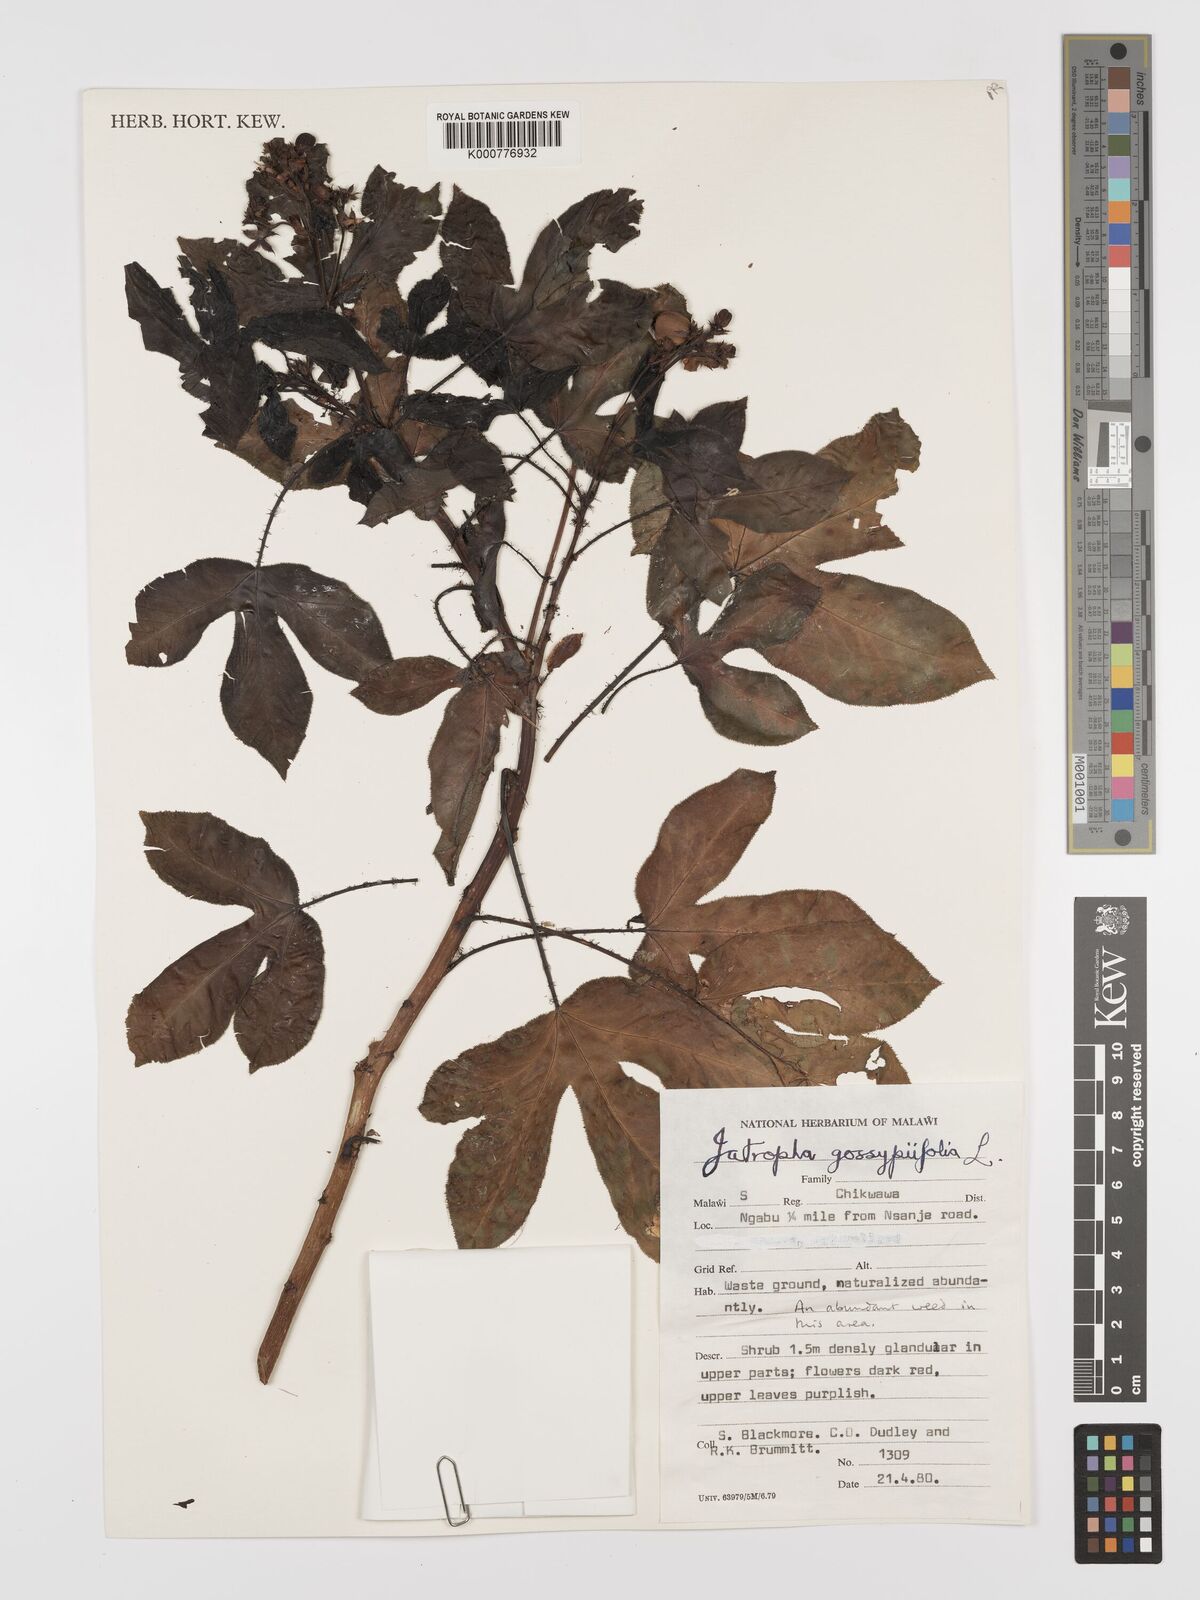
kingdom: Plantae
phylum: Tracheophyta
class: Magnoliopsida
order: Malpighiales
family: Euphorbiaceae
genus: Jatropha
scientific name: Jatropha gossypiifolia
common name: Bellyache bush
